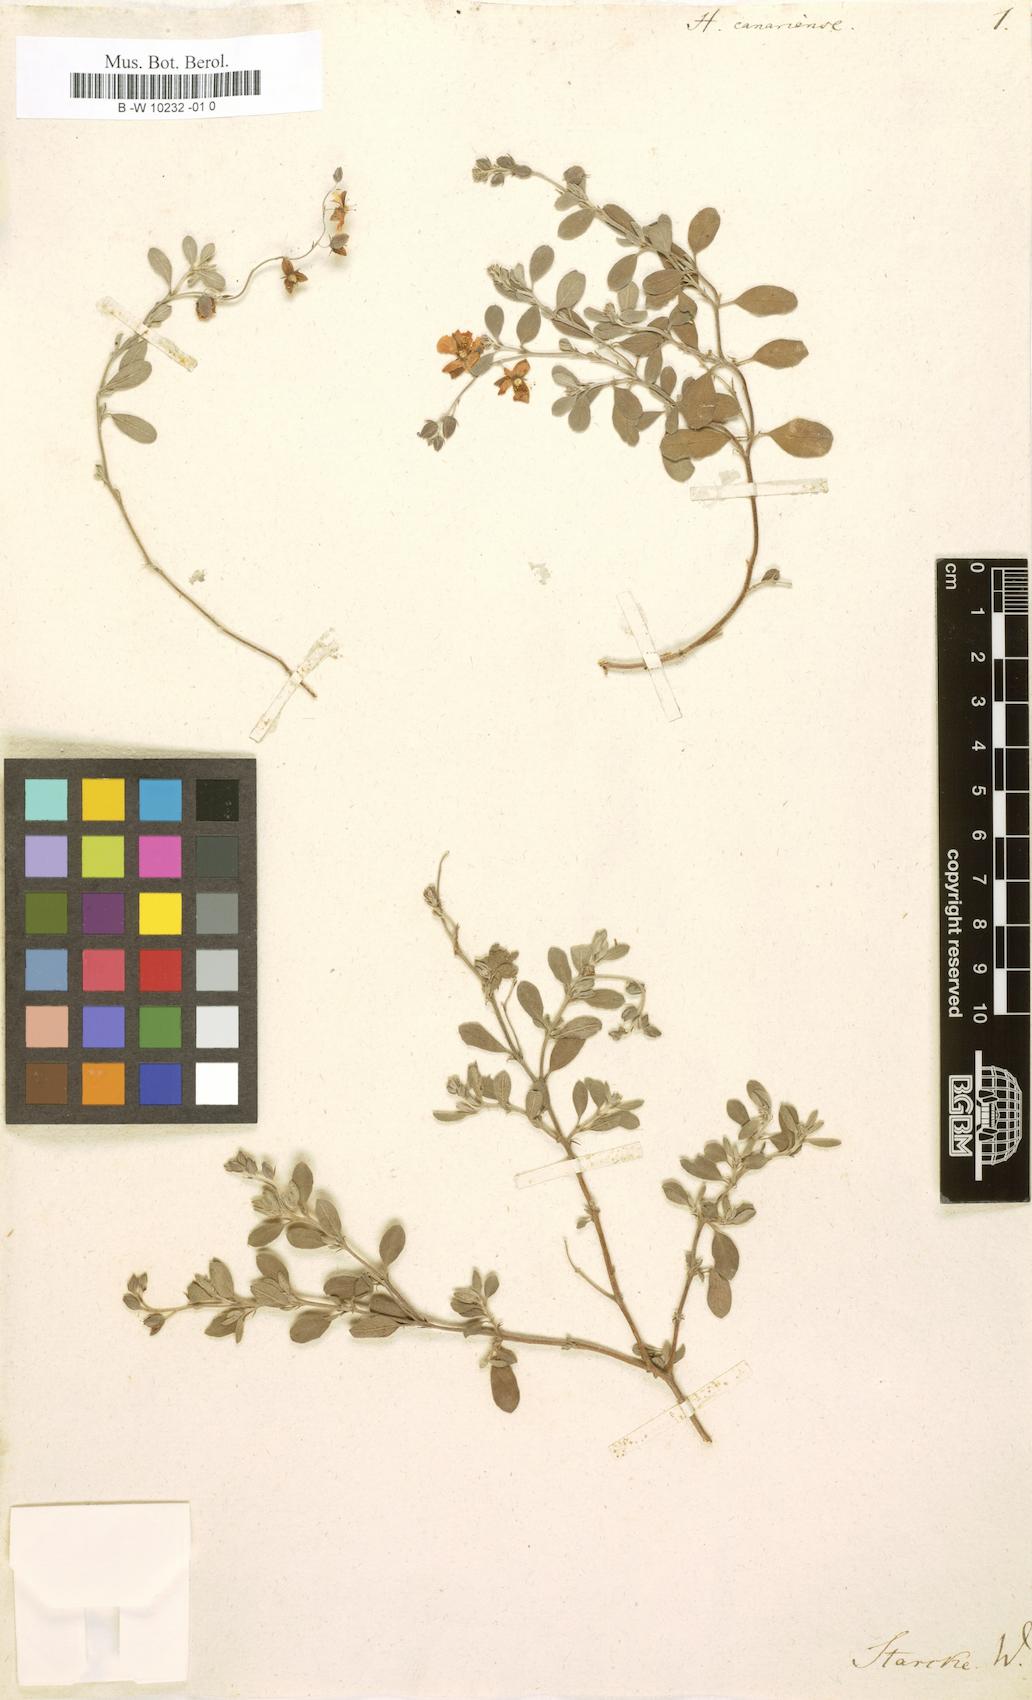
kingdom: Plantae
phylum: Tracheophyta
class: Magnoliopsida
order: Malvales
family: Cistaceae
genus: Helianthemum
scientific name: Helianthemum canariense
